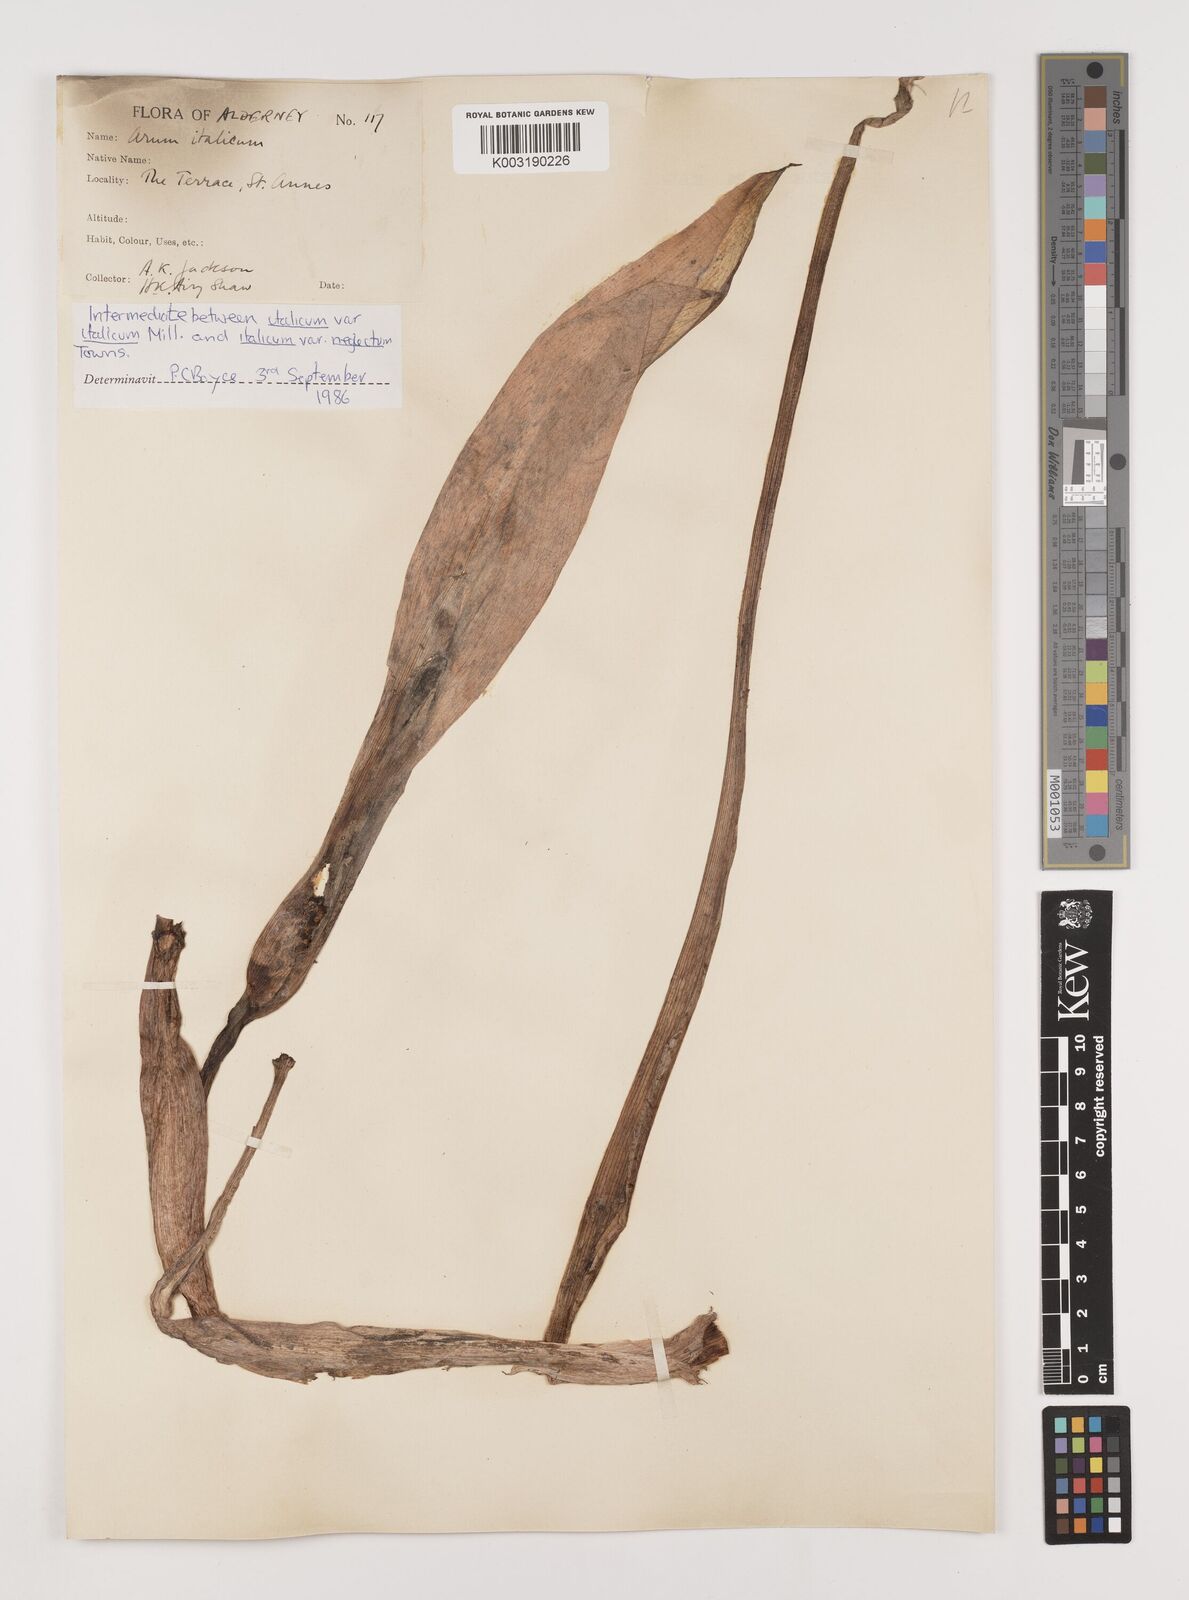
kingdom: Plantae
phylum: Tracheophyta
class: Liliopsida
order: Alismatales
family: Araceae
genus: Arum
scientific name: Arum italicum
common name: Italian lords-and-ladies
